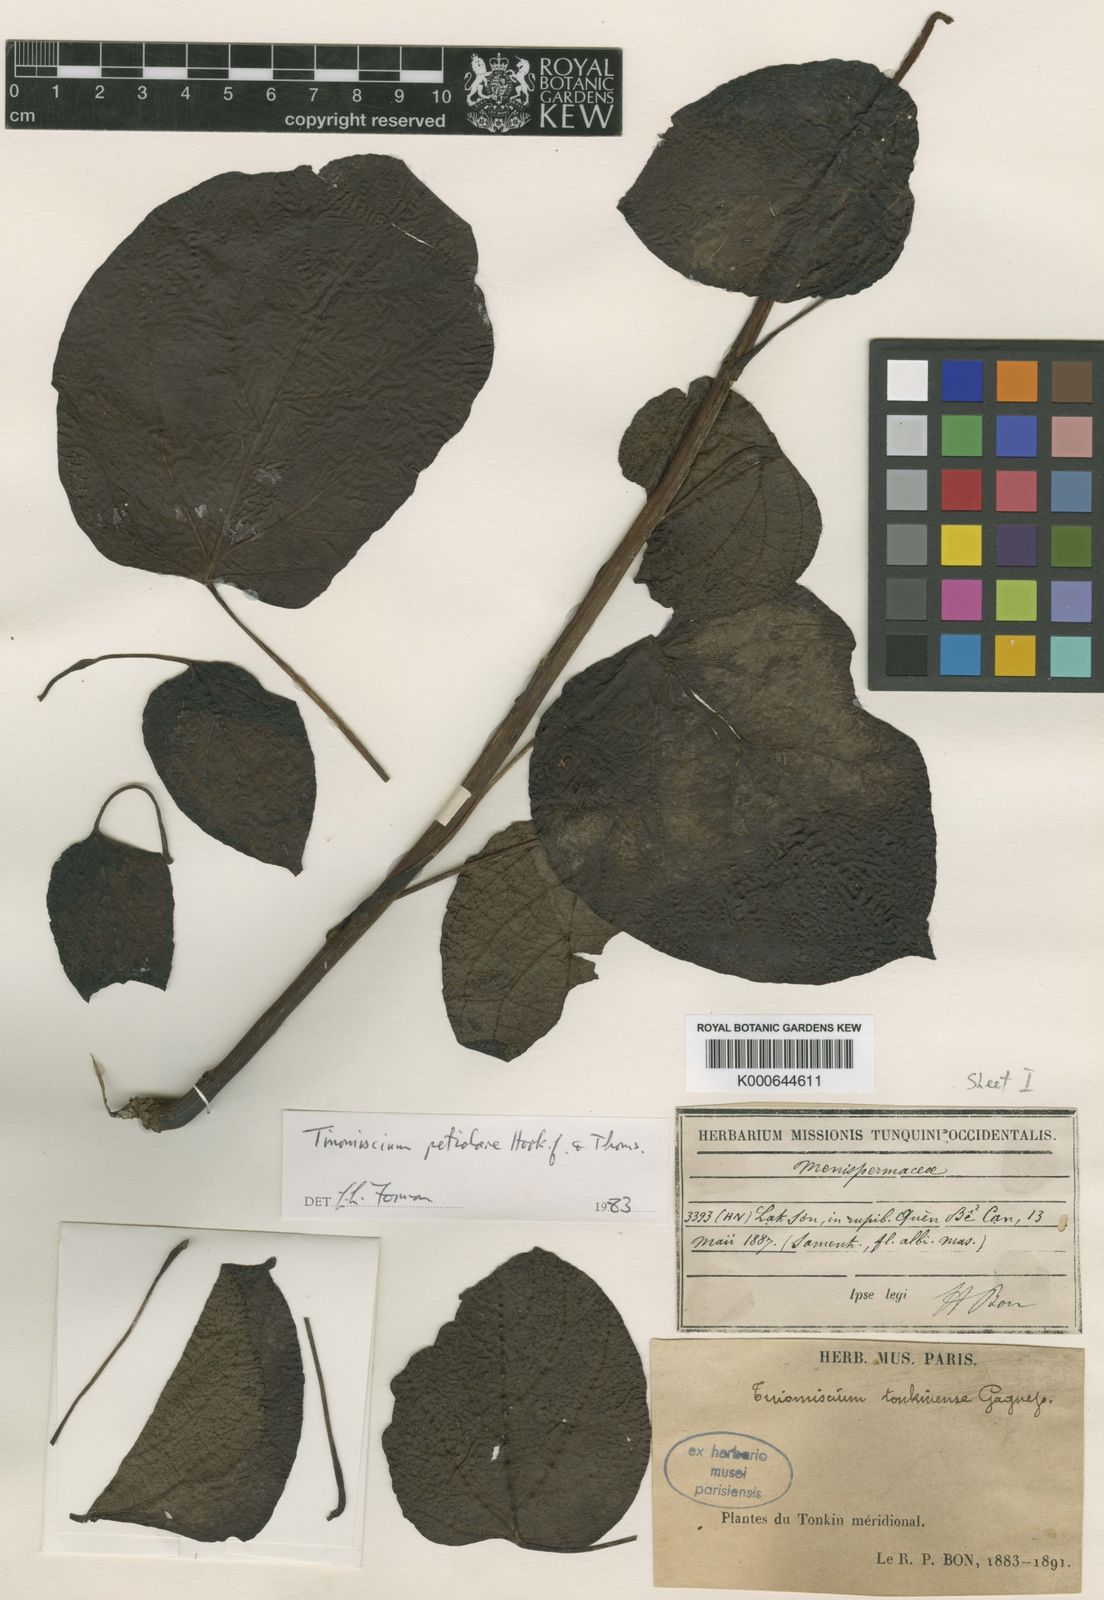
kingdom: Plantae
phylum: Tracheophyta
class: Magnoliopsida
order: Ranunculales
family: Menispermaceae
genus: Tinomiscium
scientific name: Tinomiscium petiolare
